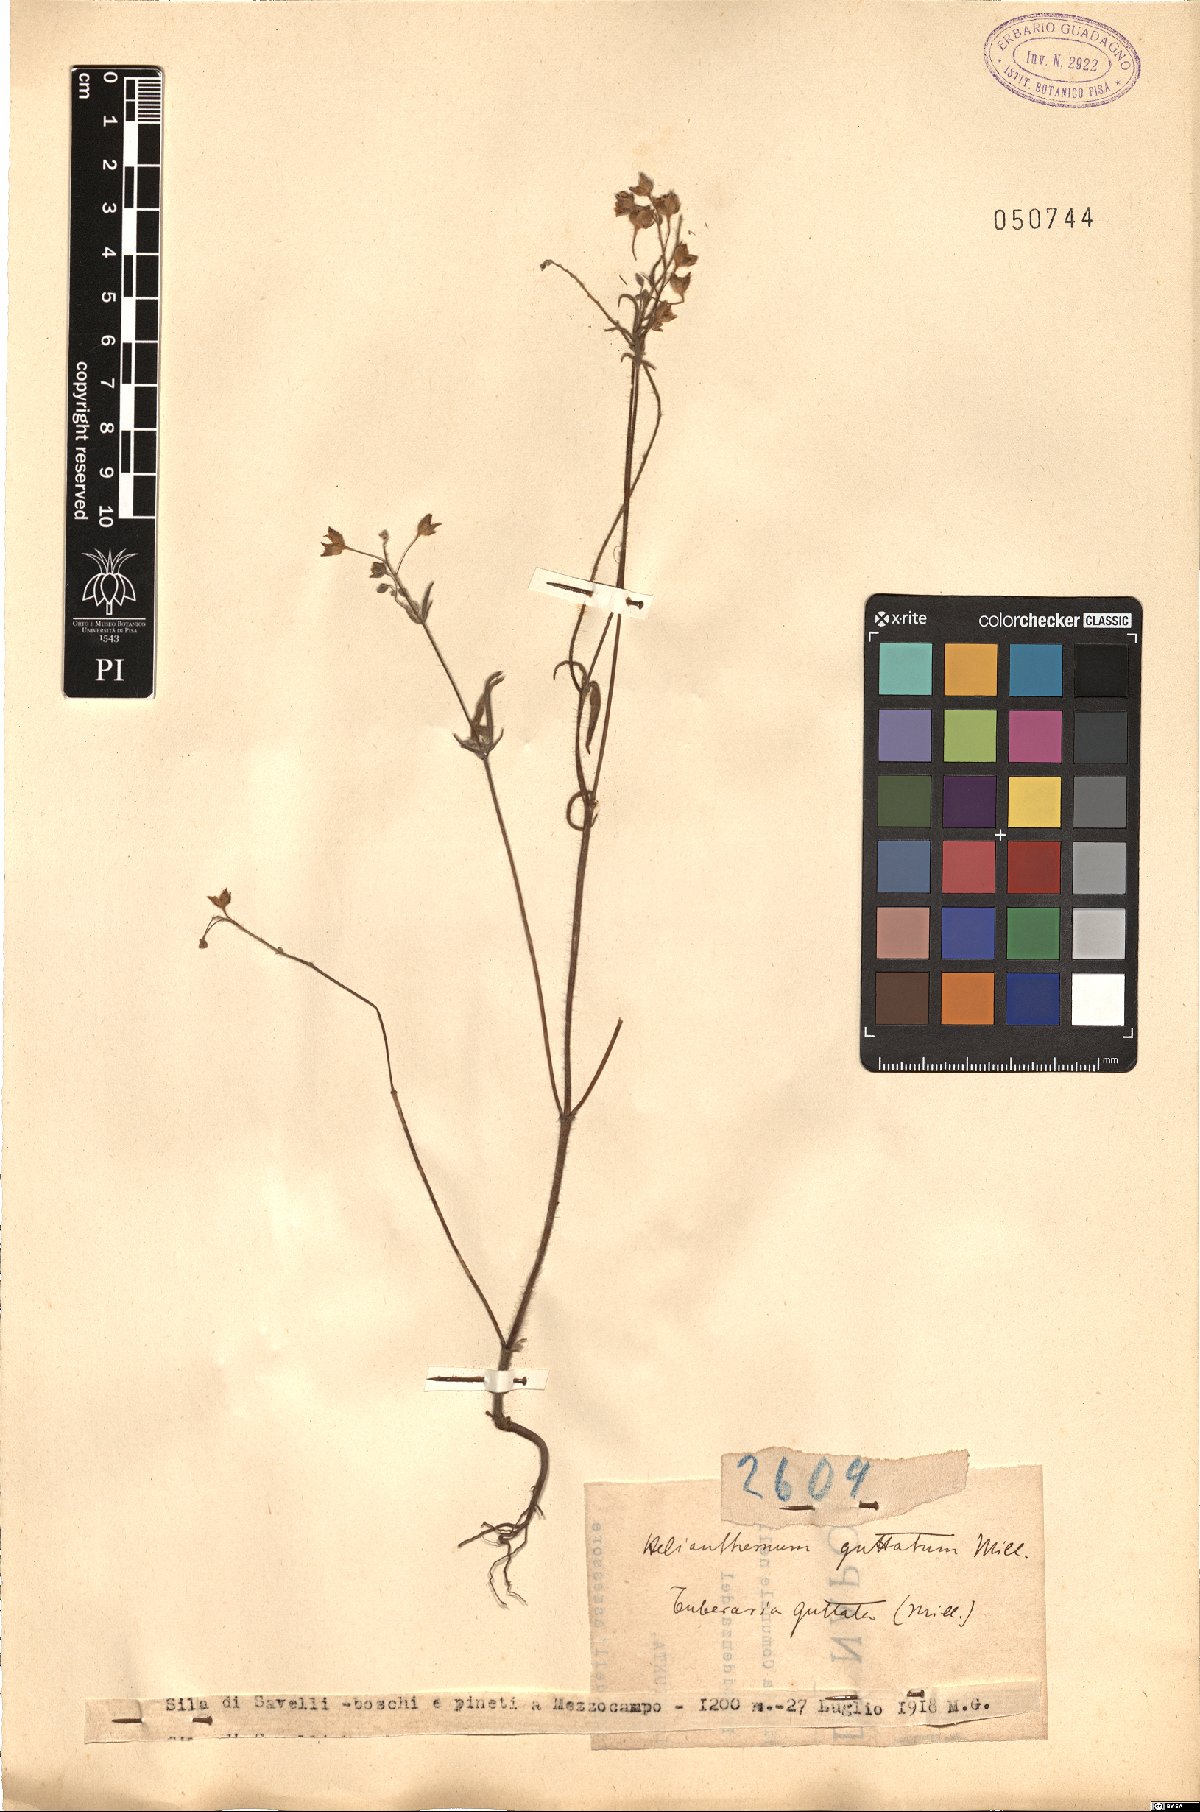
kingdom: Plantae
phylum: Tracheophyta
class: Magnoliopsida
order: Malvales
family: Cistaceae
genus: Tuberaria
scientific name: Tuberaria guttata
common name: Spotted rock-rose
